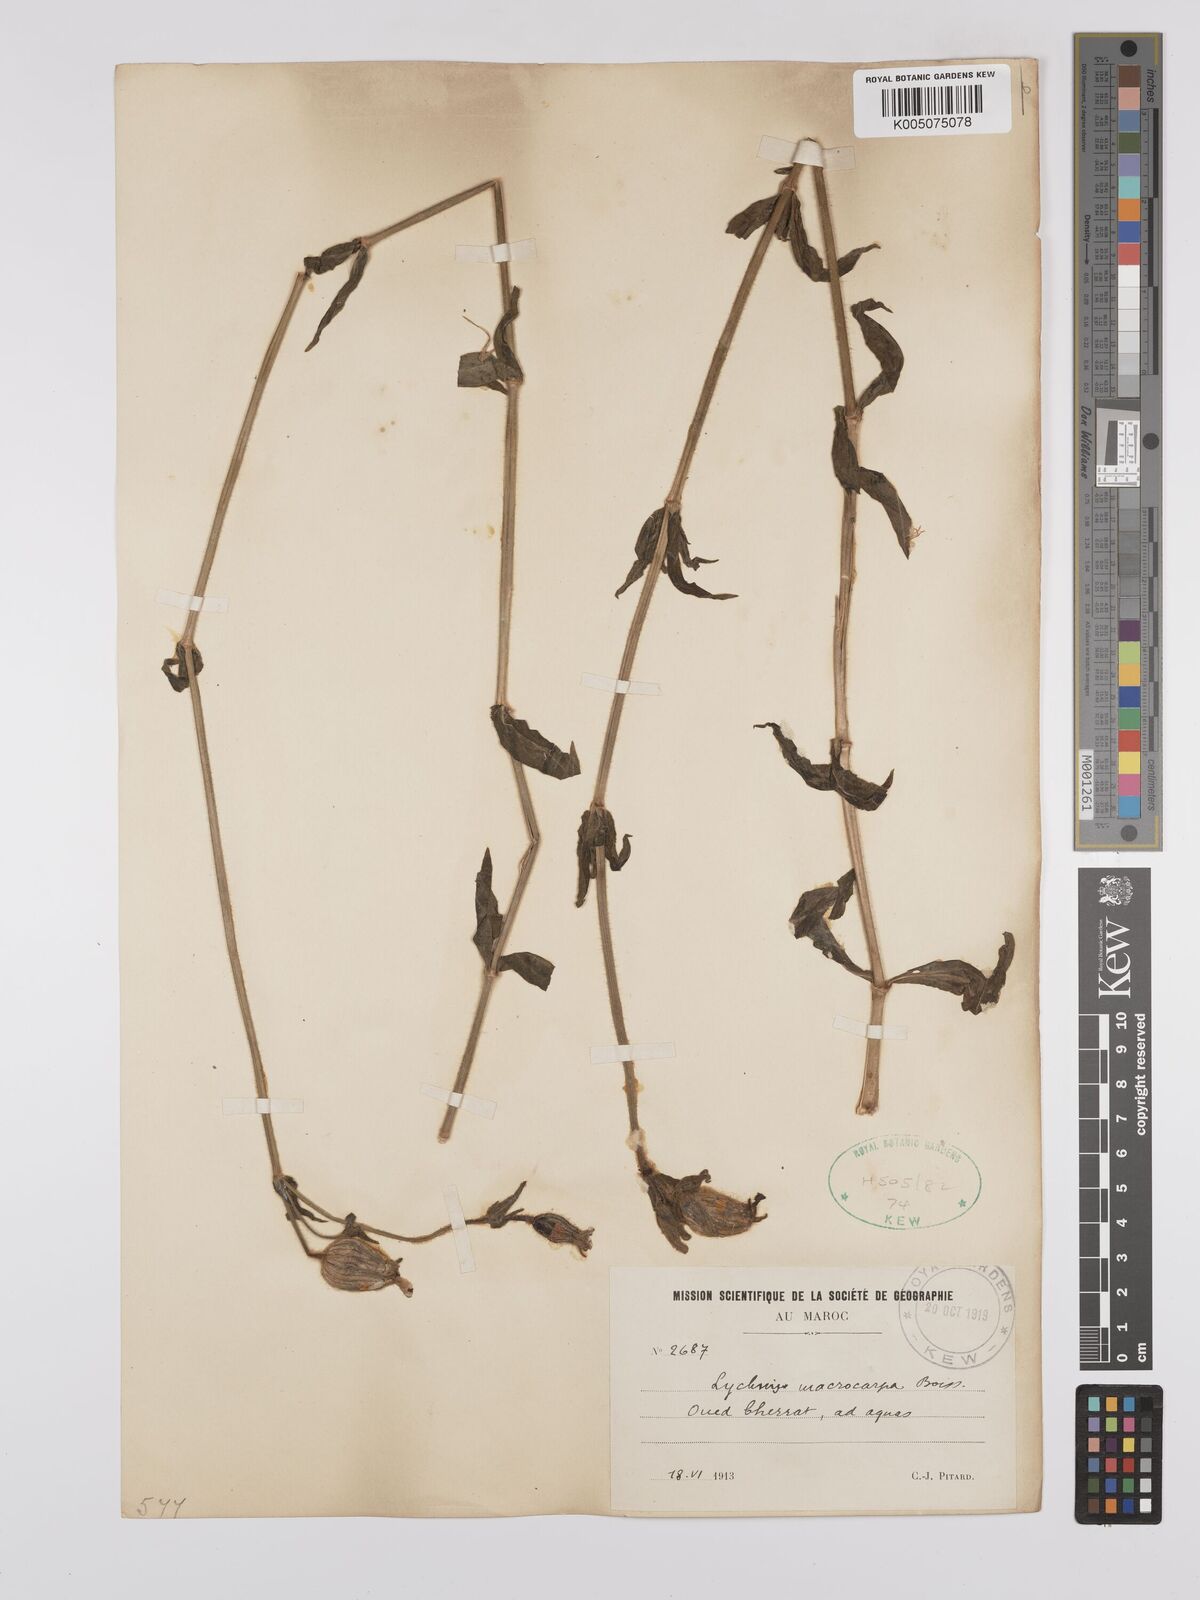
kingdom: Plantae
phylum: Tracheophyta
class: Magnoliopsida
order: Caryophyllales
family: Caryophyllaceae
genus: Silene
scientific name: Silene
